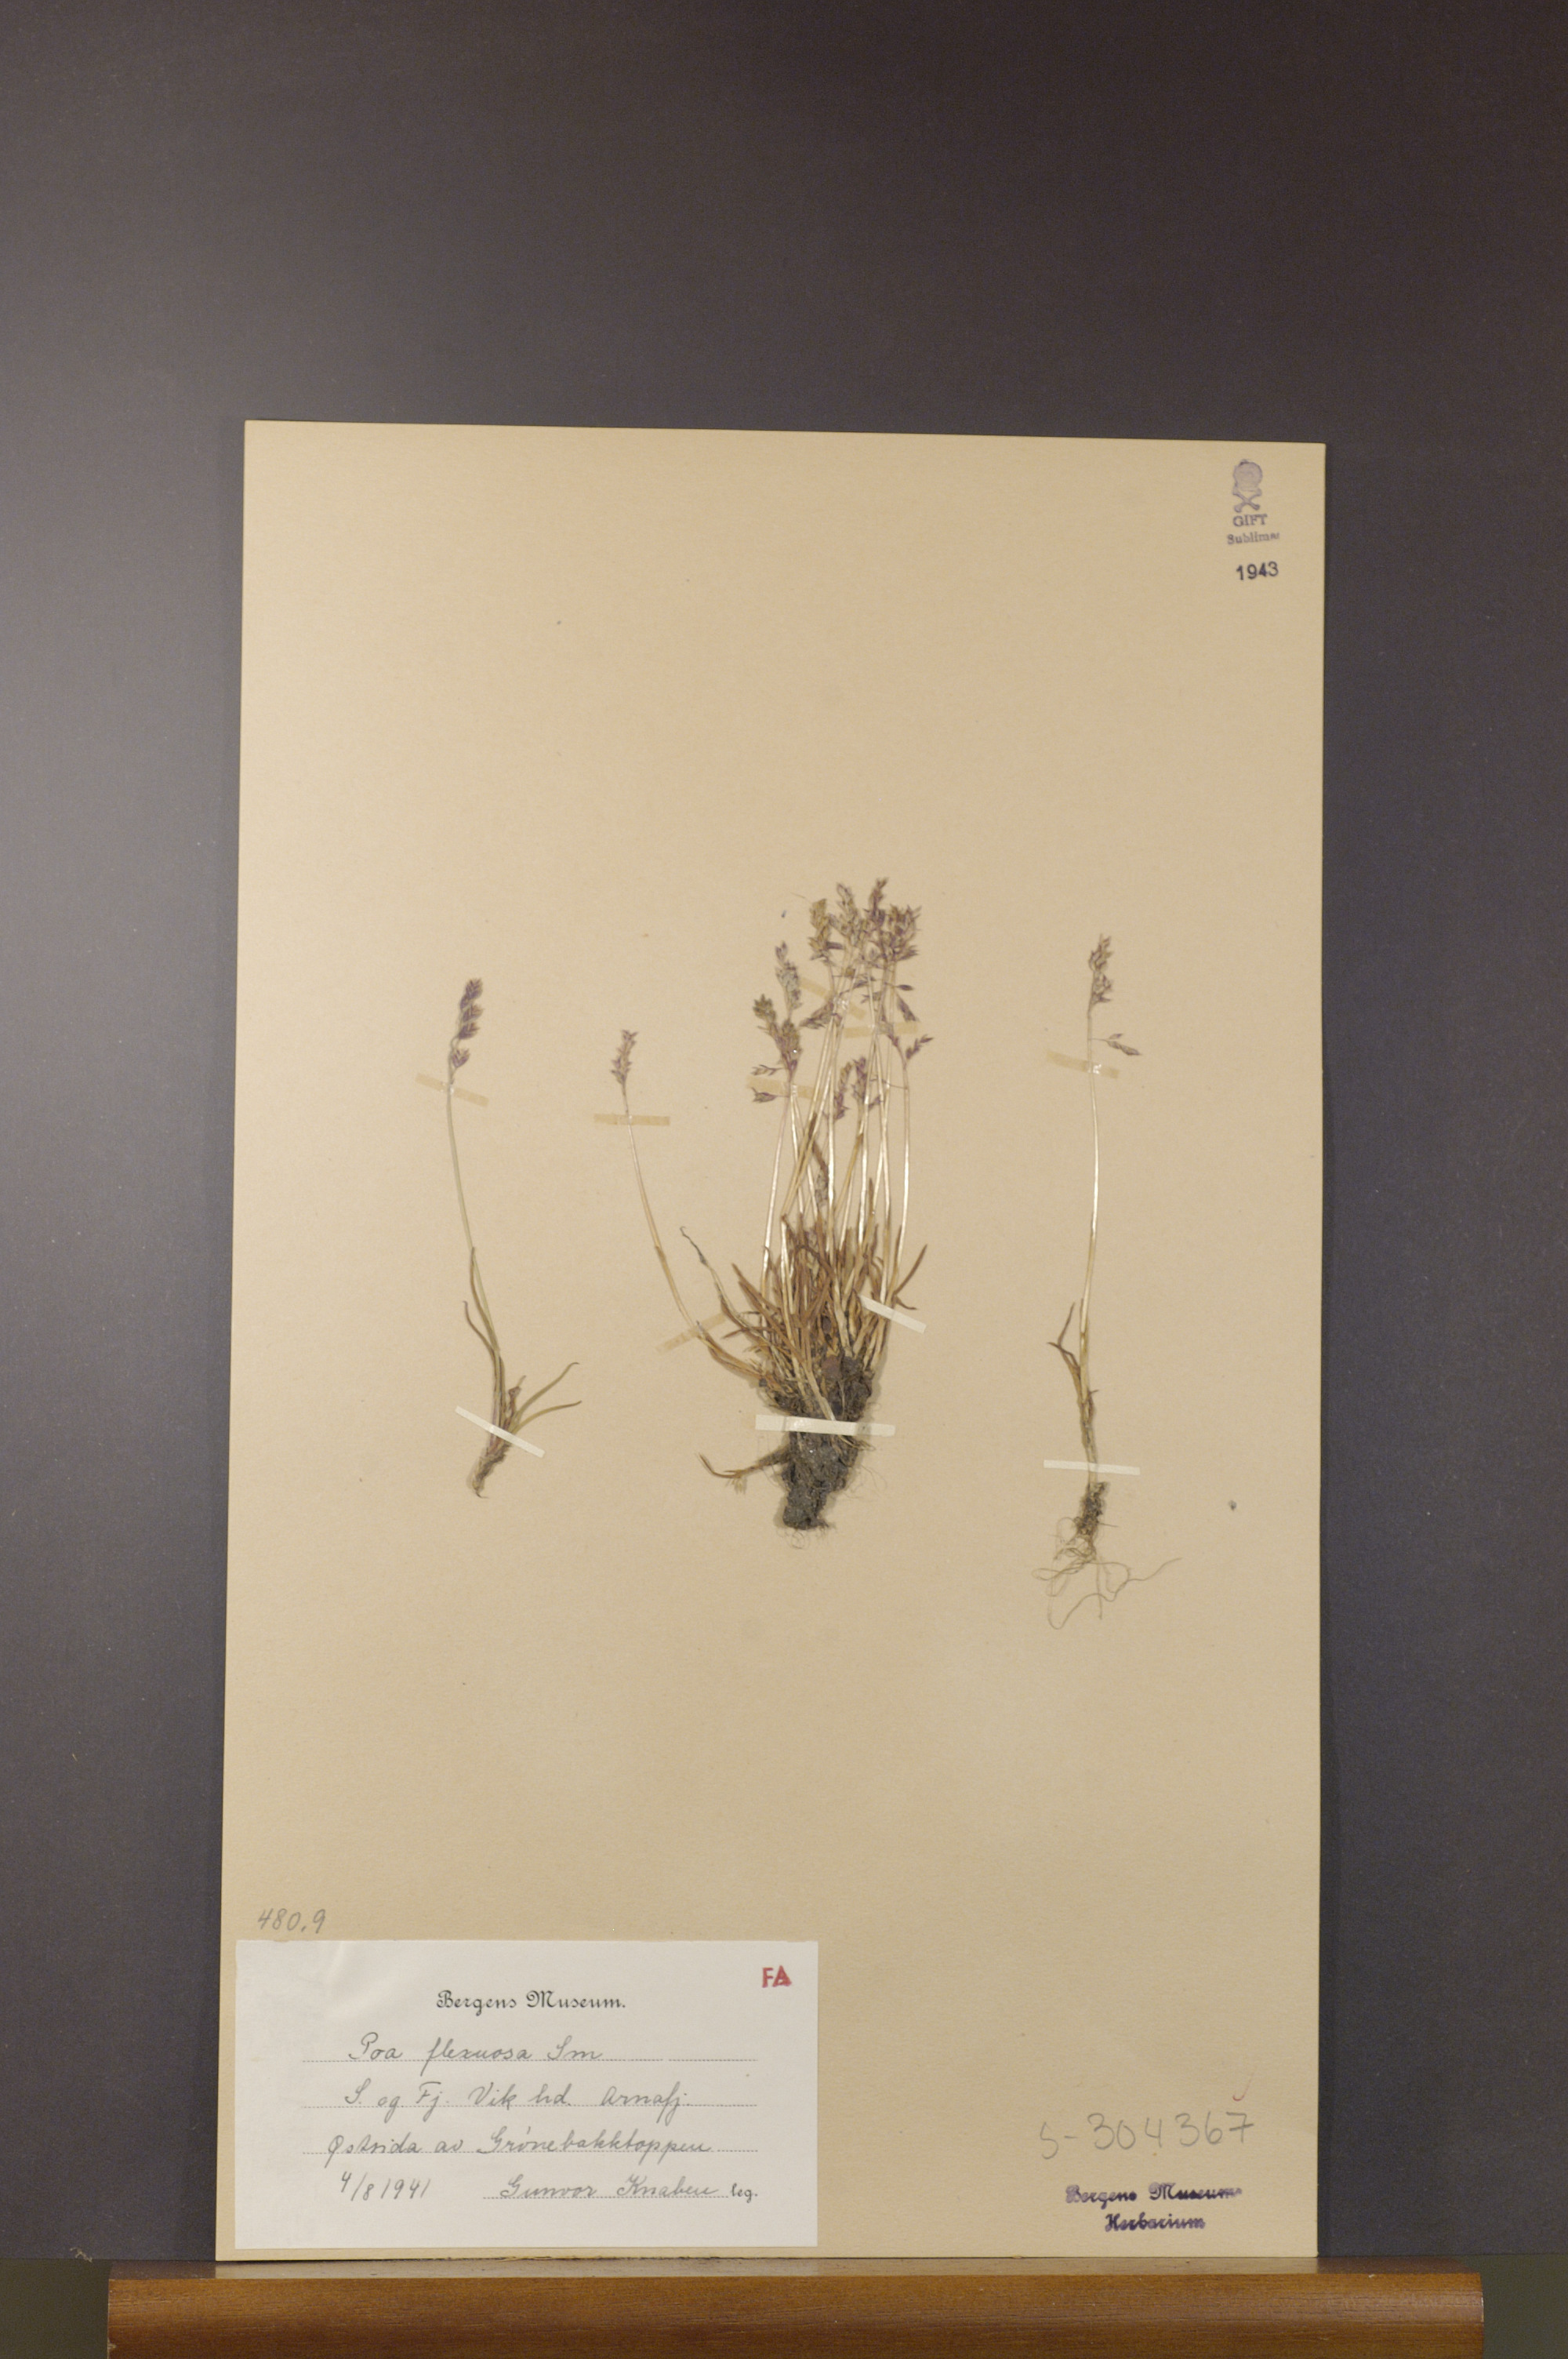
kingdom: Plantae
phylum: Tracheophyta
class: Liliopsida
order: Poales
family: Poaceae
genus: Poa
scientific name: Poa flexuosa
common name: Wavy meadow-grass
